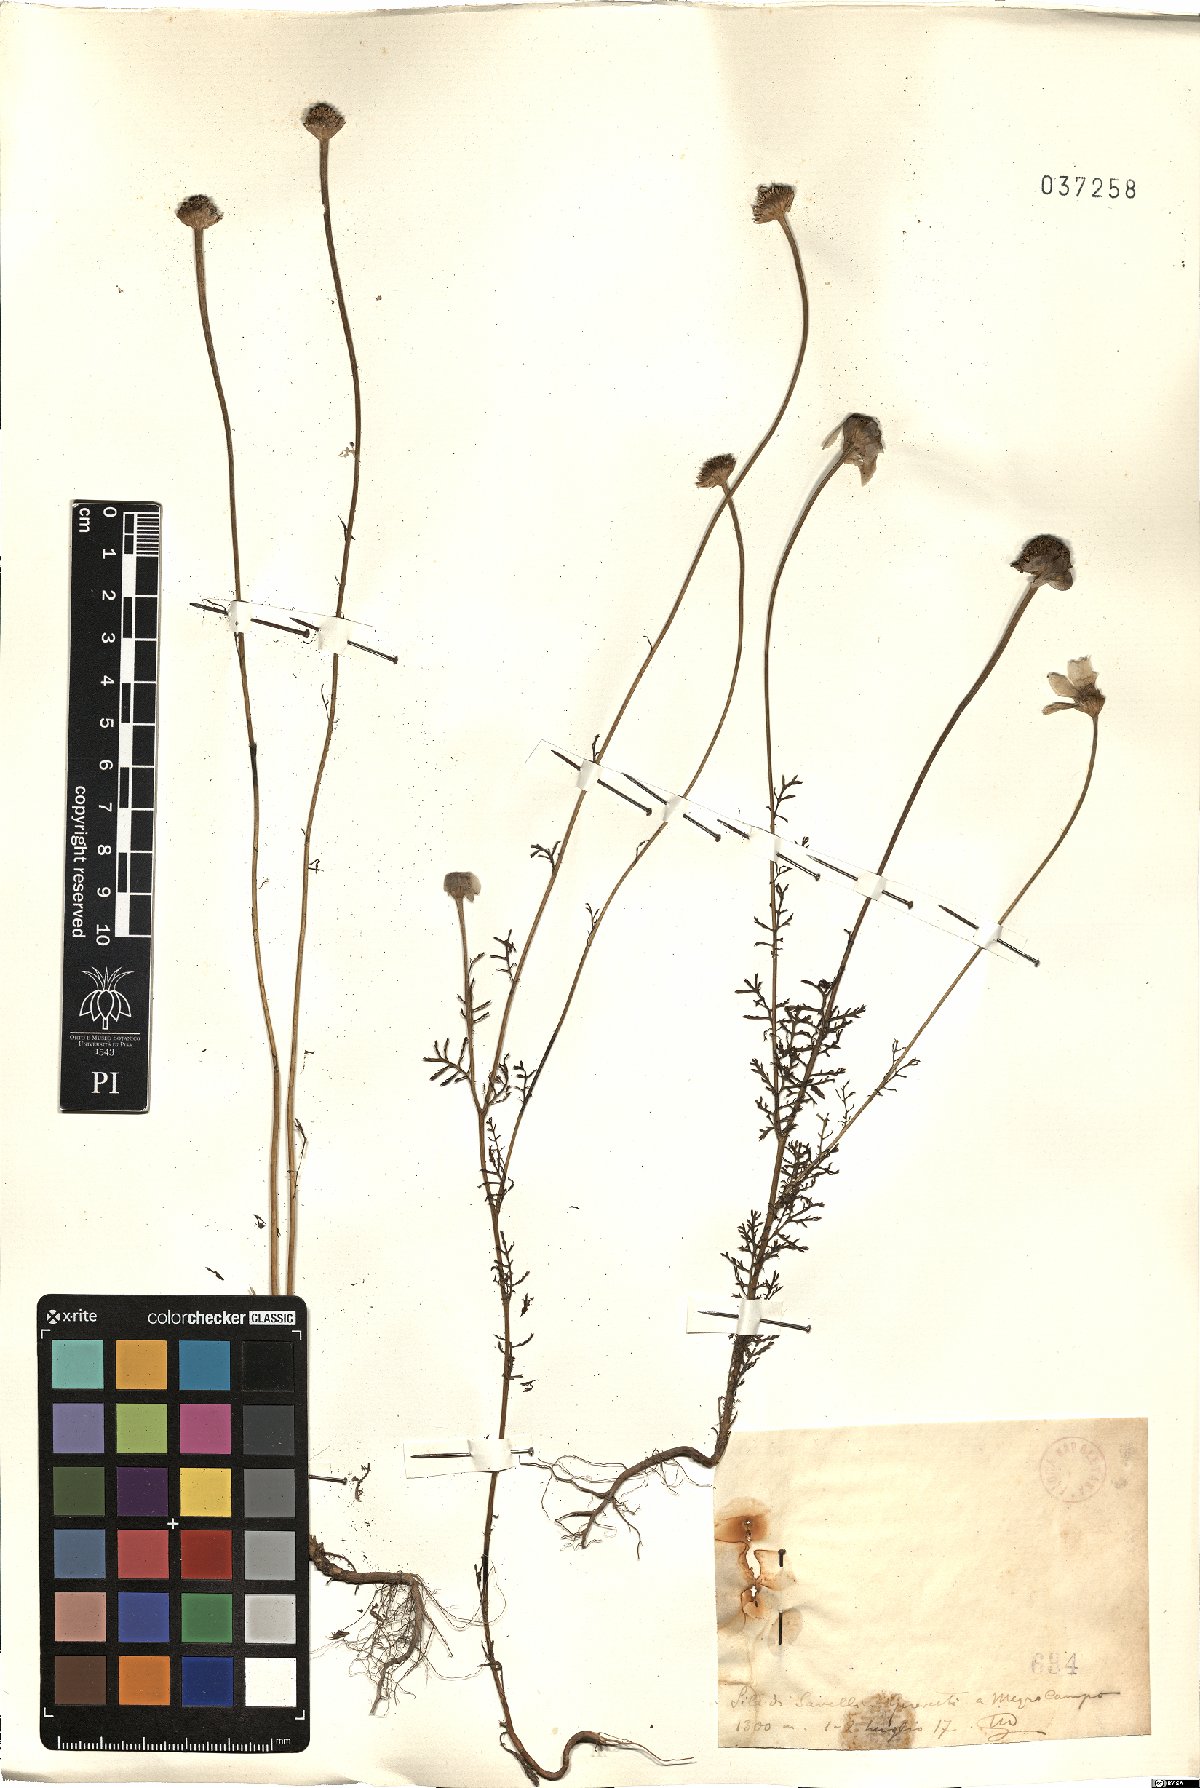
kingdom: Plantae
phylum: Tracheophyta
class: Magnoliopsida
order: Asterales
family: Asteraceae
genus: Anthemis
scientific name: Anthemis
